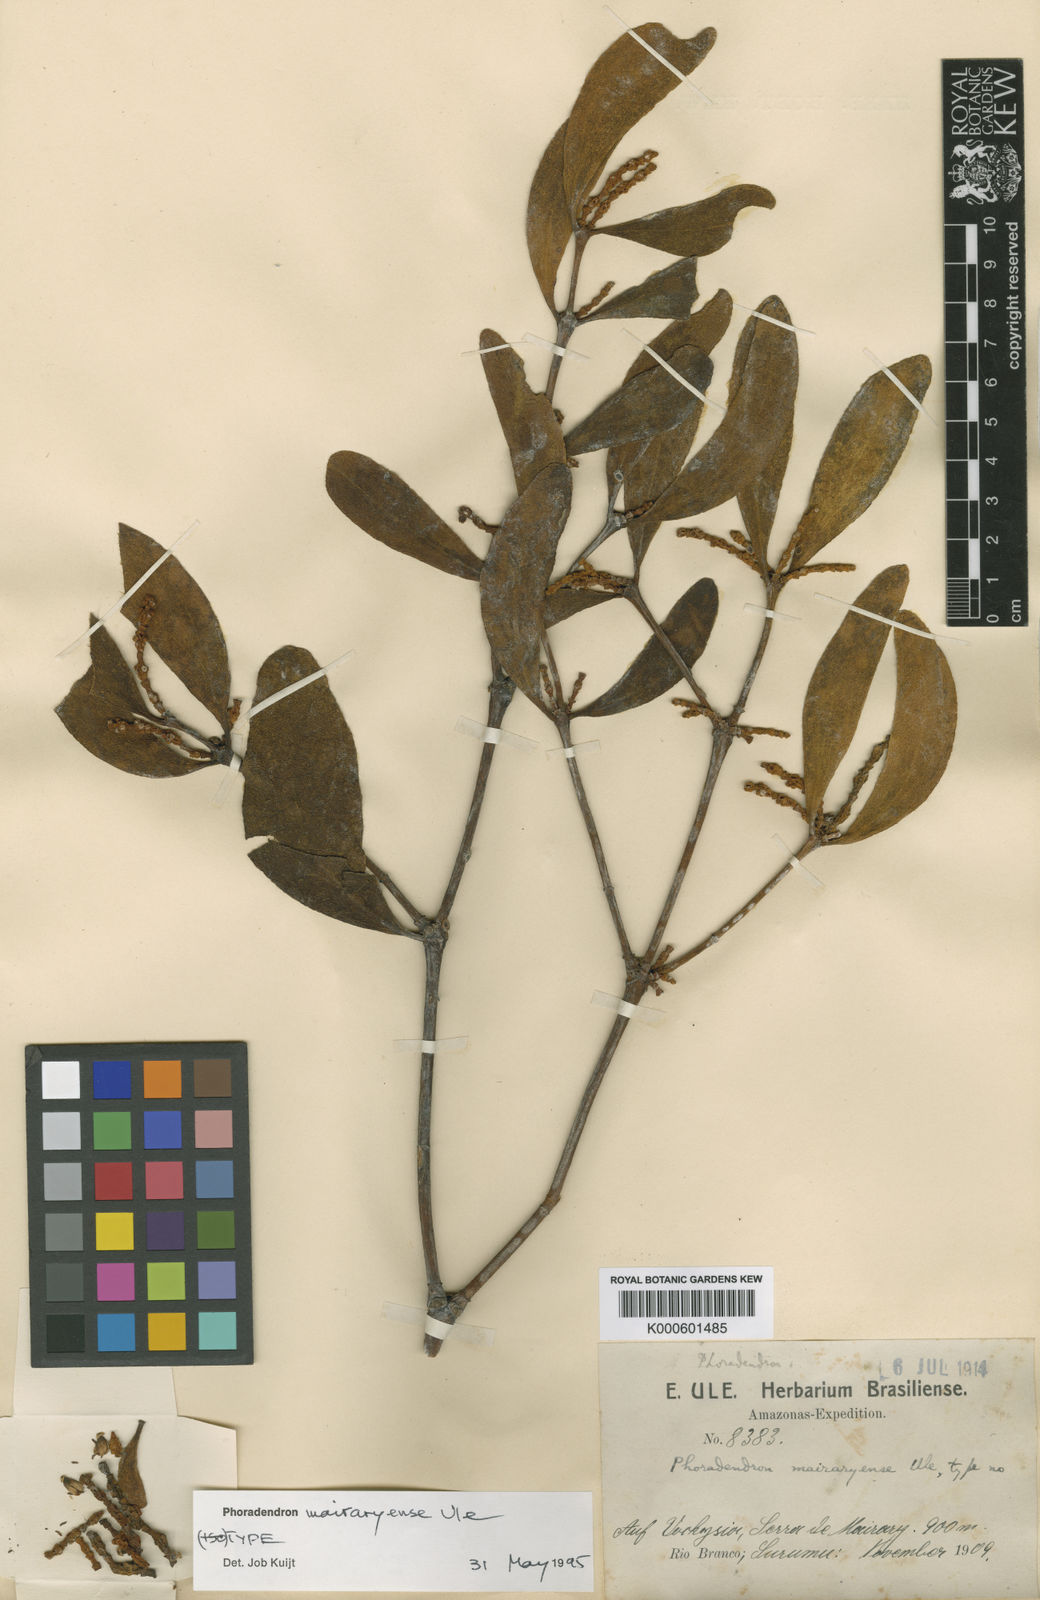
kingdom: Plantae
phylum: Tracheophyta
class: Magnoliopsida
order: Santalales
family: Viscaceae
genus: Phoradendron
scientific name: Phoradendron mairaryense
